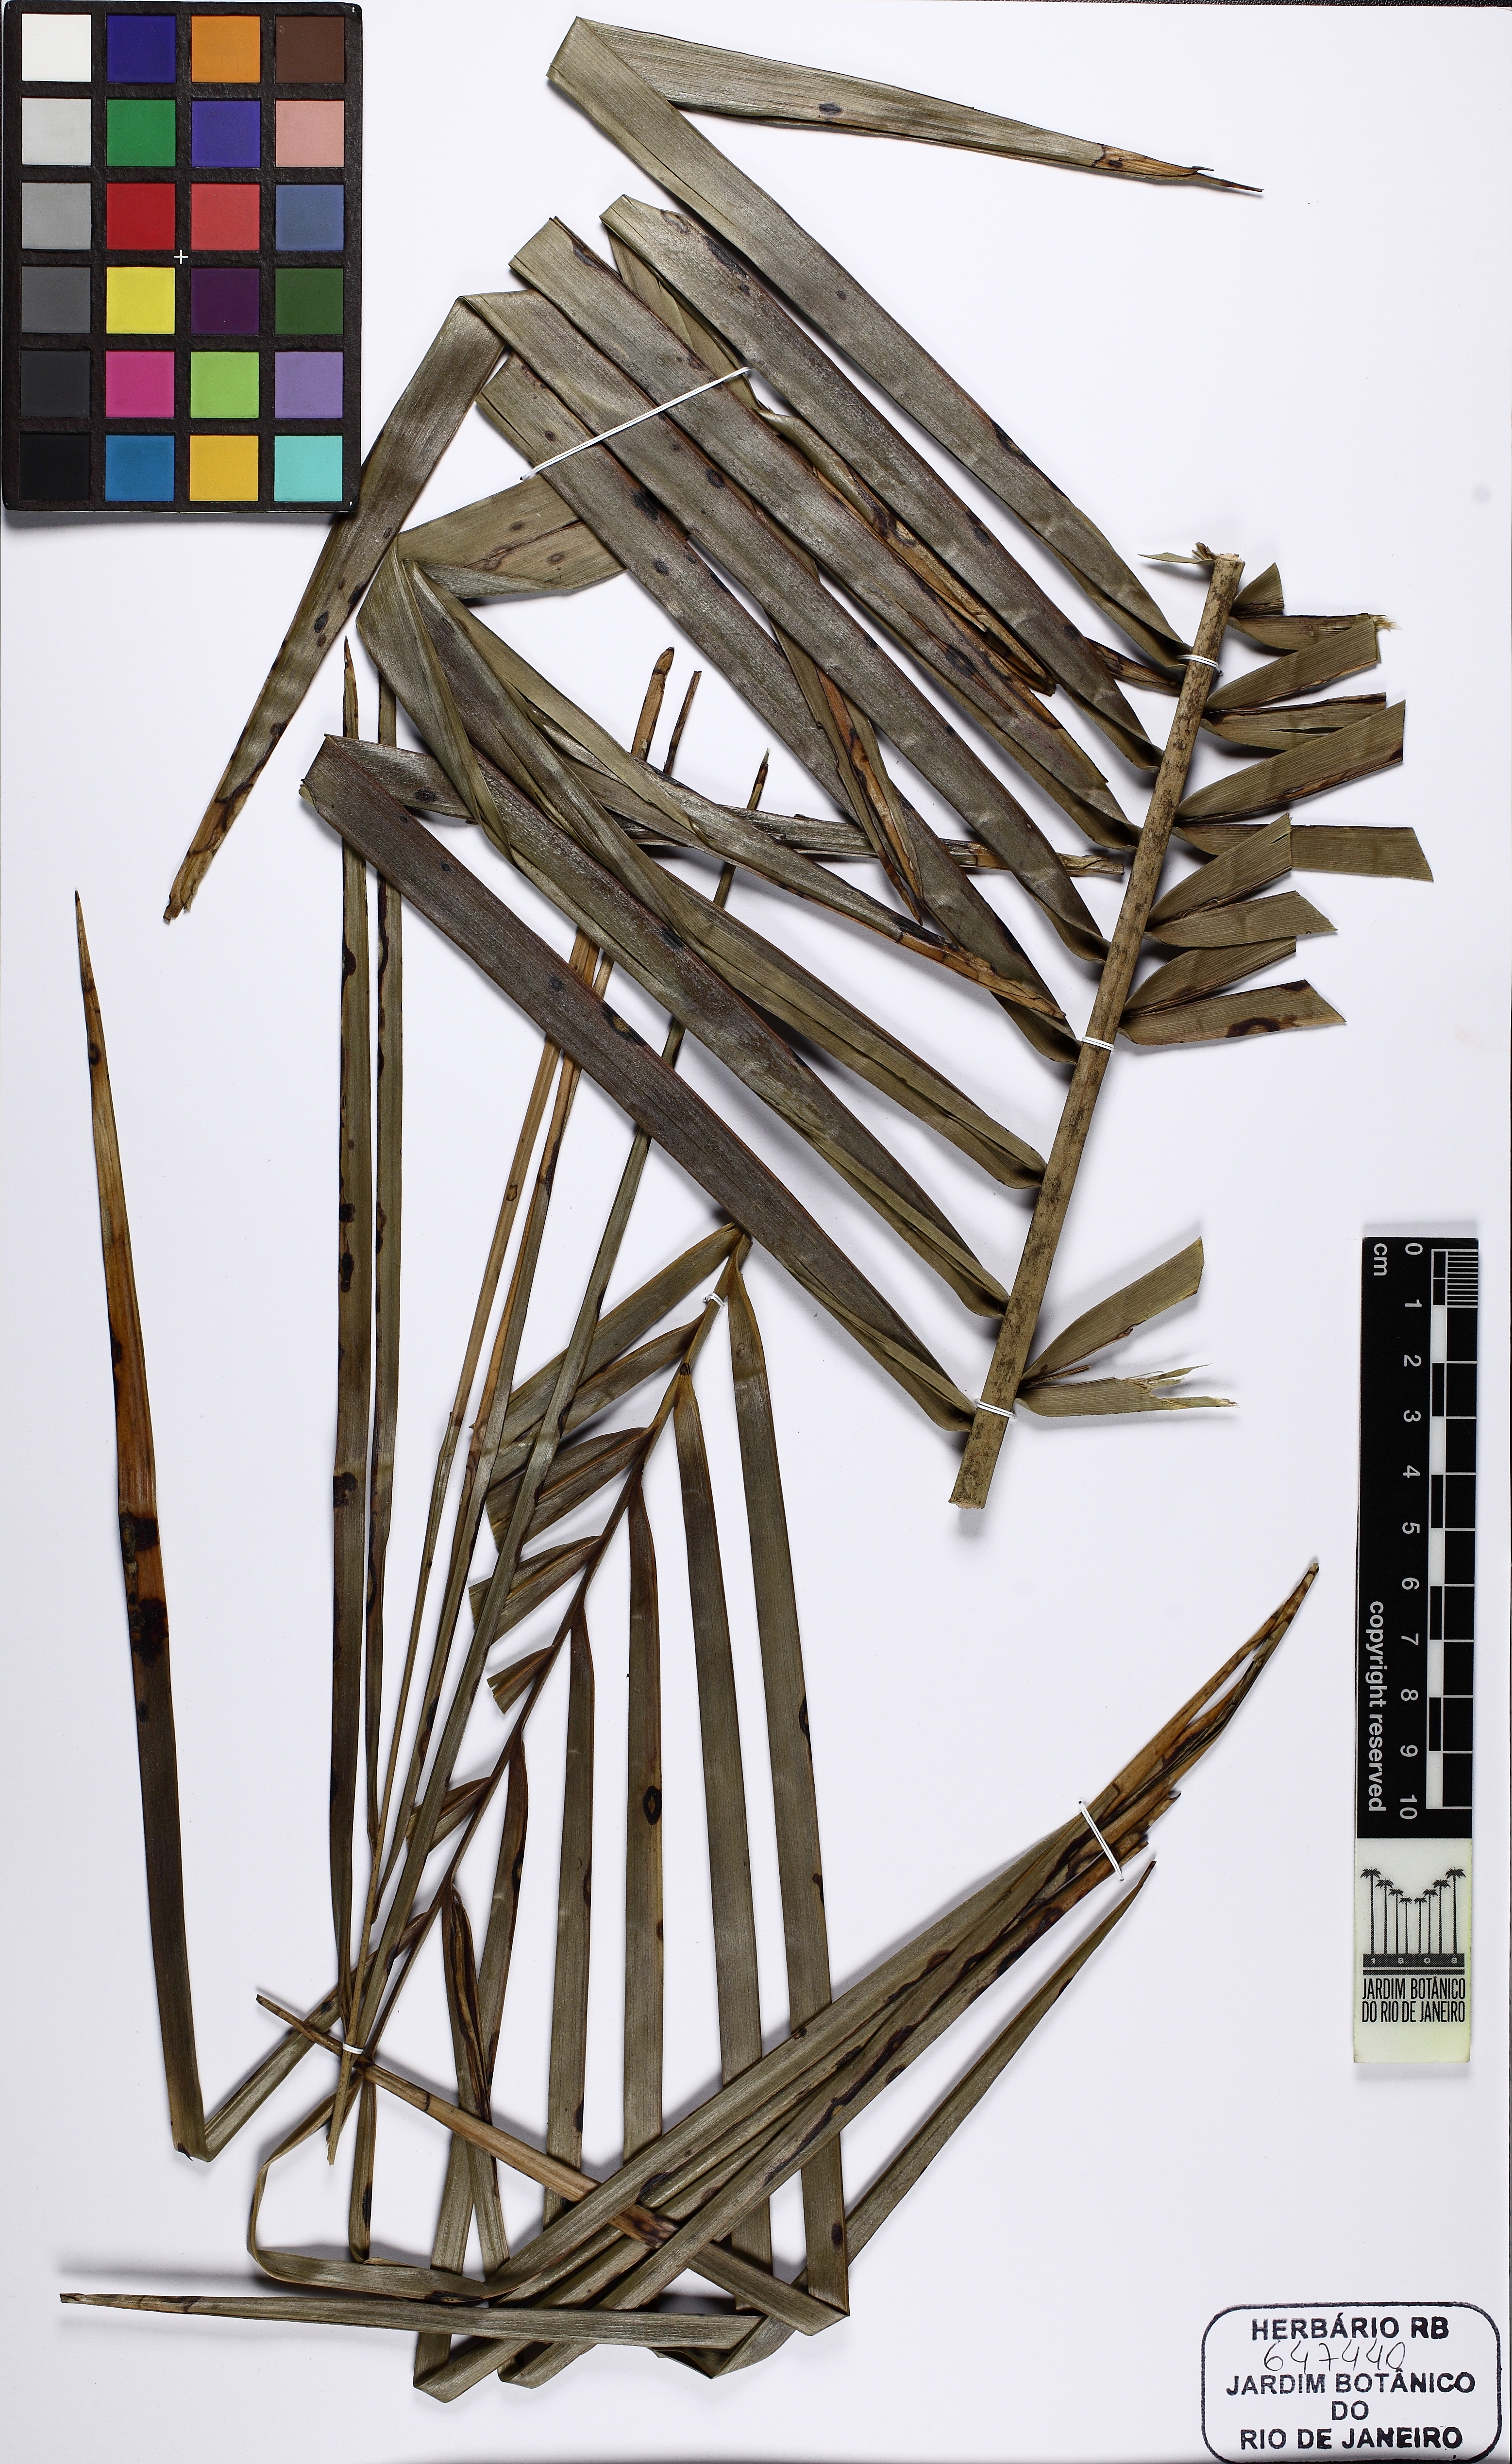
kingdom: Plantae
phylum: Tracheophyta
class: Liliopsida
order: Arecales
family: Arecaceae
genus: Syagrus
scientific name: Syagrus ruschiana
